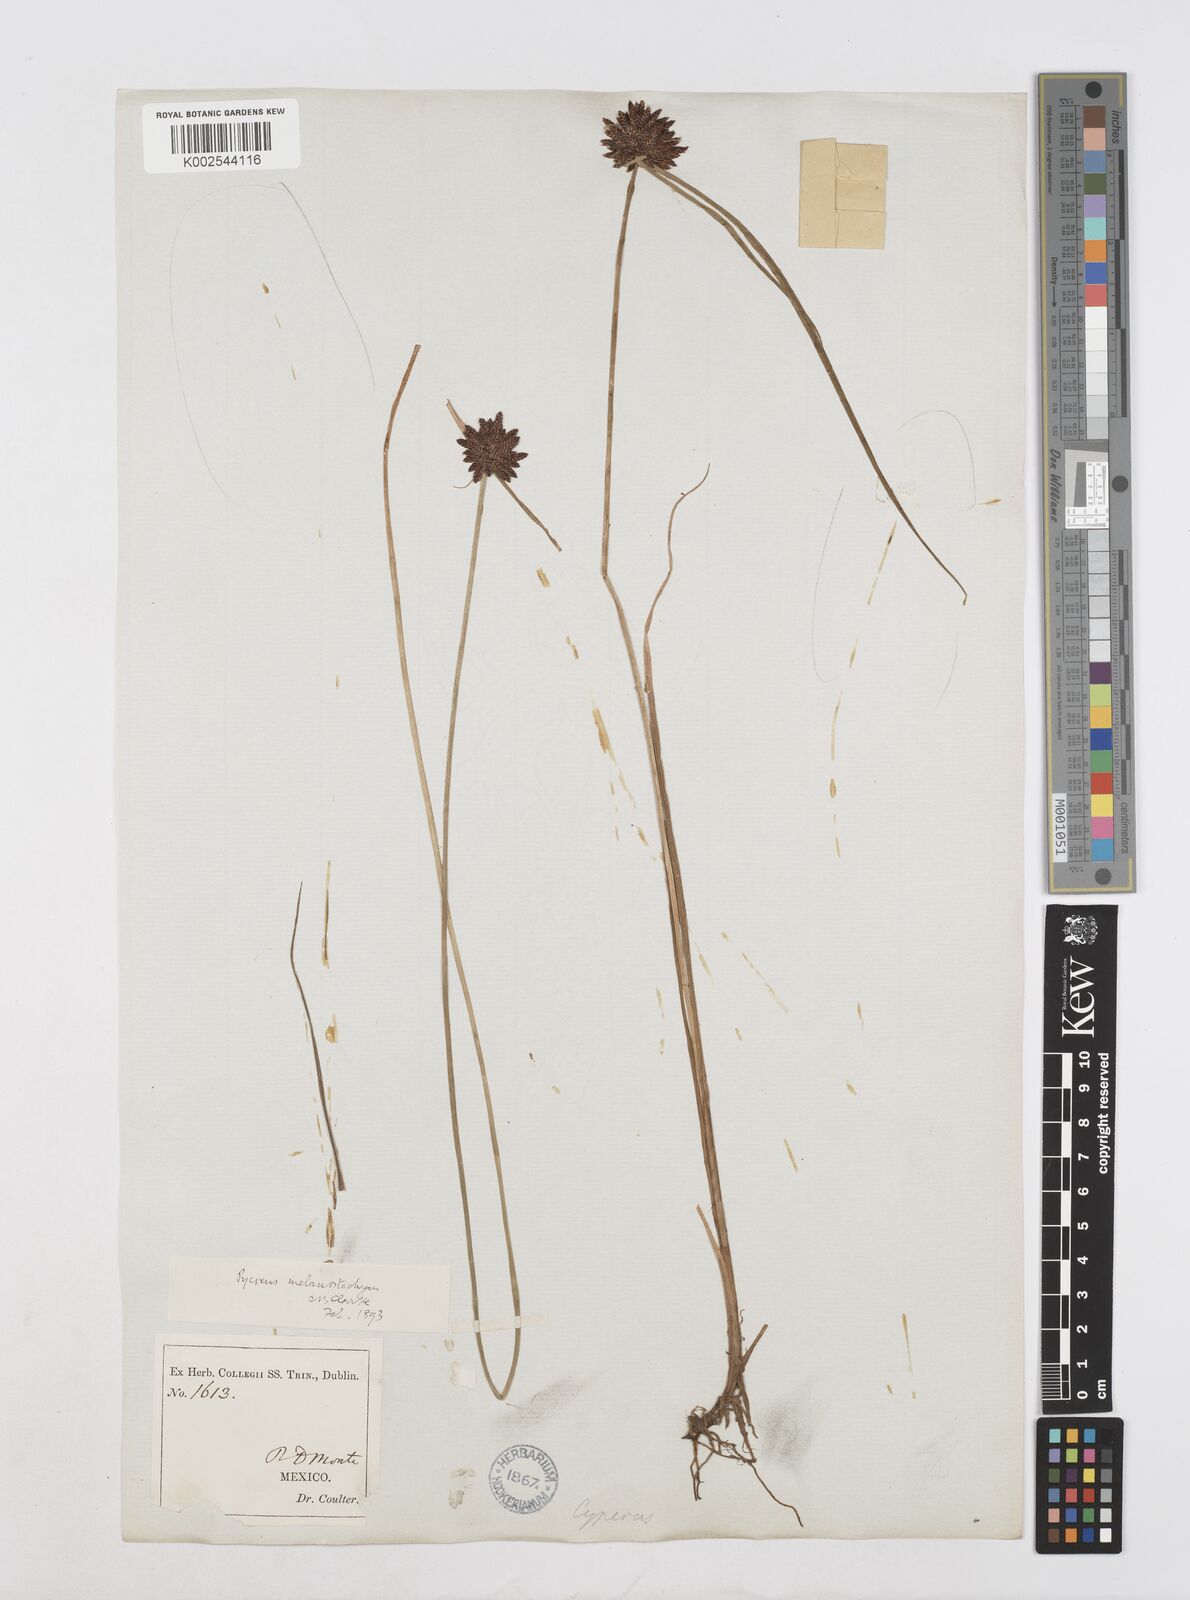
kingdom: Plantae
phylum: Tracheophyta
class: Liliopsida
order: Poales
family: Cyperaceae
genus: Cyperus
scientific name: Cyperus melanostachyus
